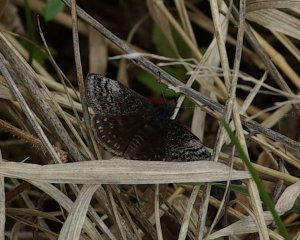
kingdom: Animalia
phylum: Arthropoda
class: Insecta
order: Lepidoptera
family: Hesperiidae
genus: Erynnis
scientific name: Erynnis icelus
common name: Dreamy Duskywing
